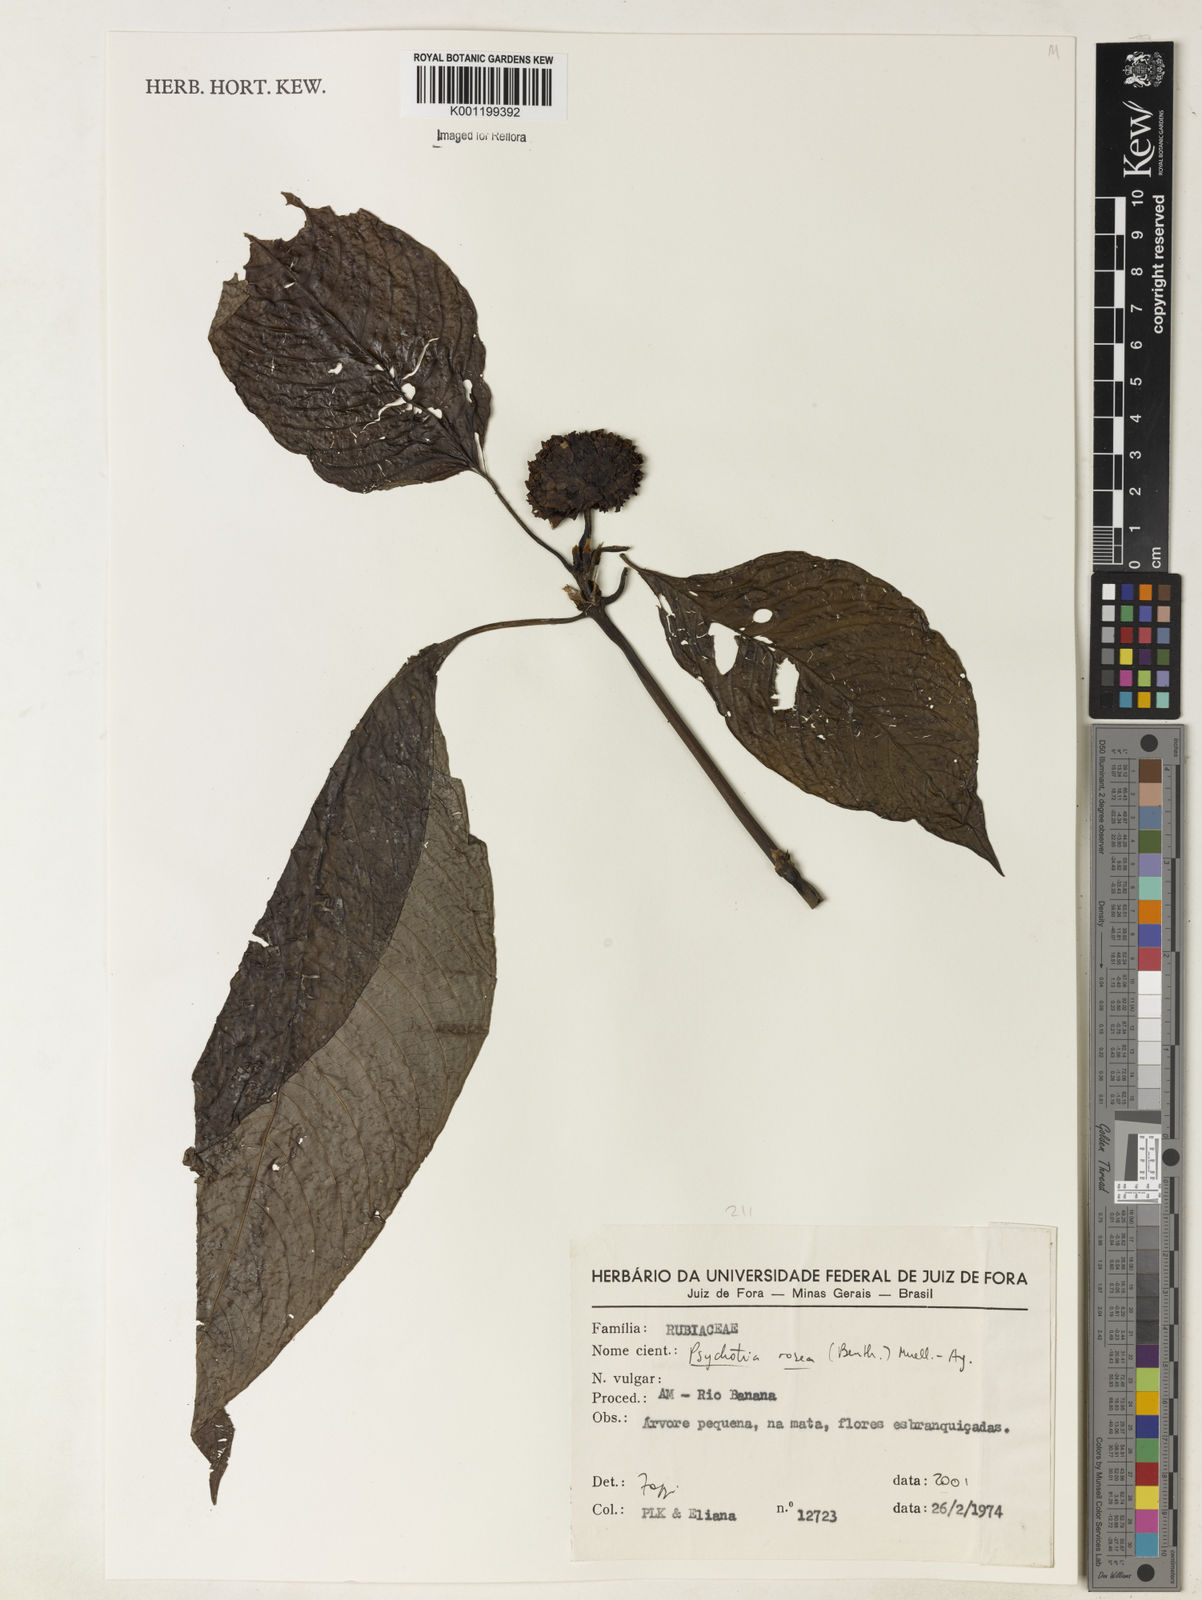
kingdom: Plantae
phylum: Tracheophyta
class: Magnoliopsida
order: Gentianales
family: Rubiaceae
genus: Psychotria
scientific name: Psychotria
